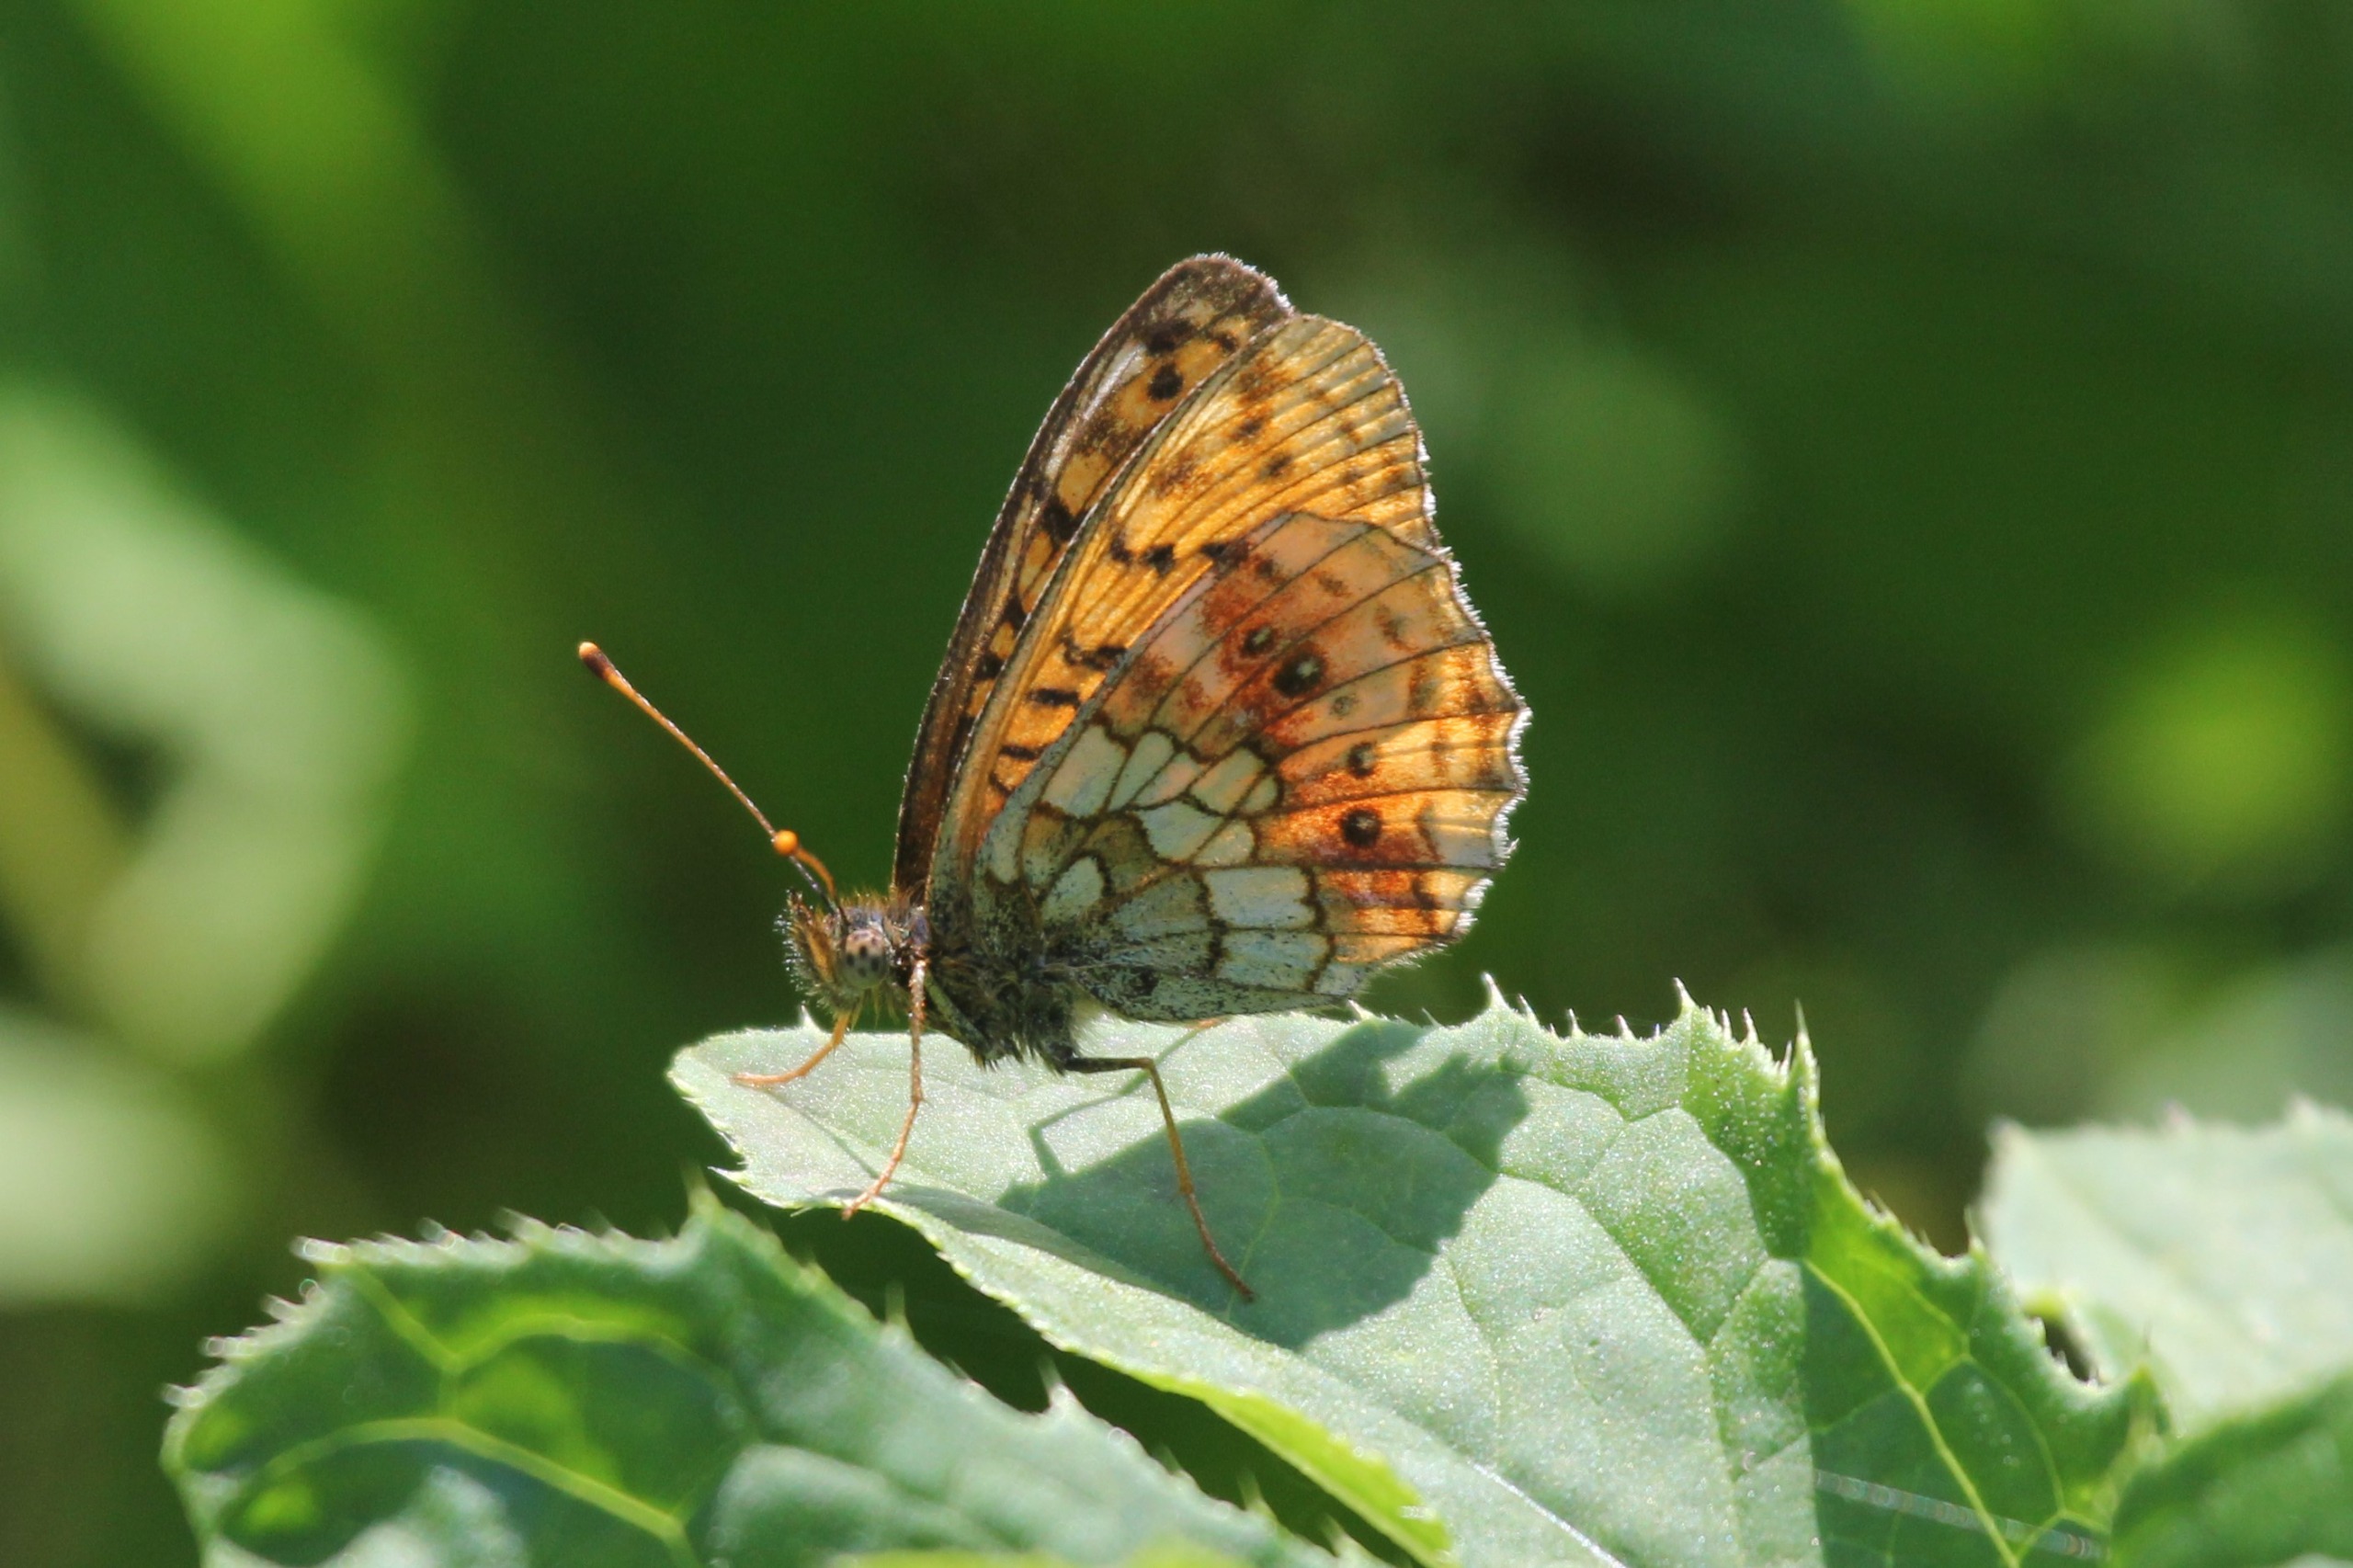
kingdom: Animalia
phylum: Arthropoda
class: Insecta
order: Lepidoptera
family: Nymphalidae
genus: Brenthis
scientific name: Brenthis ino
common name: Engperlemorsommerfugl
